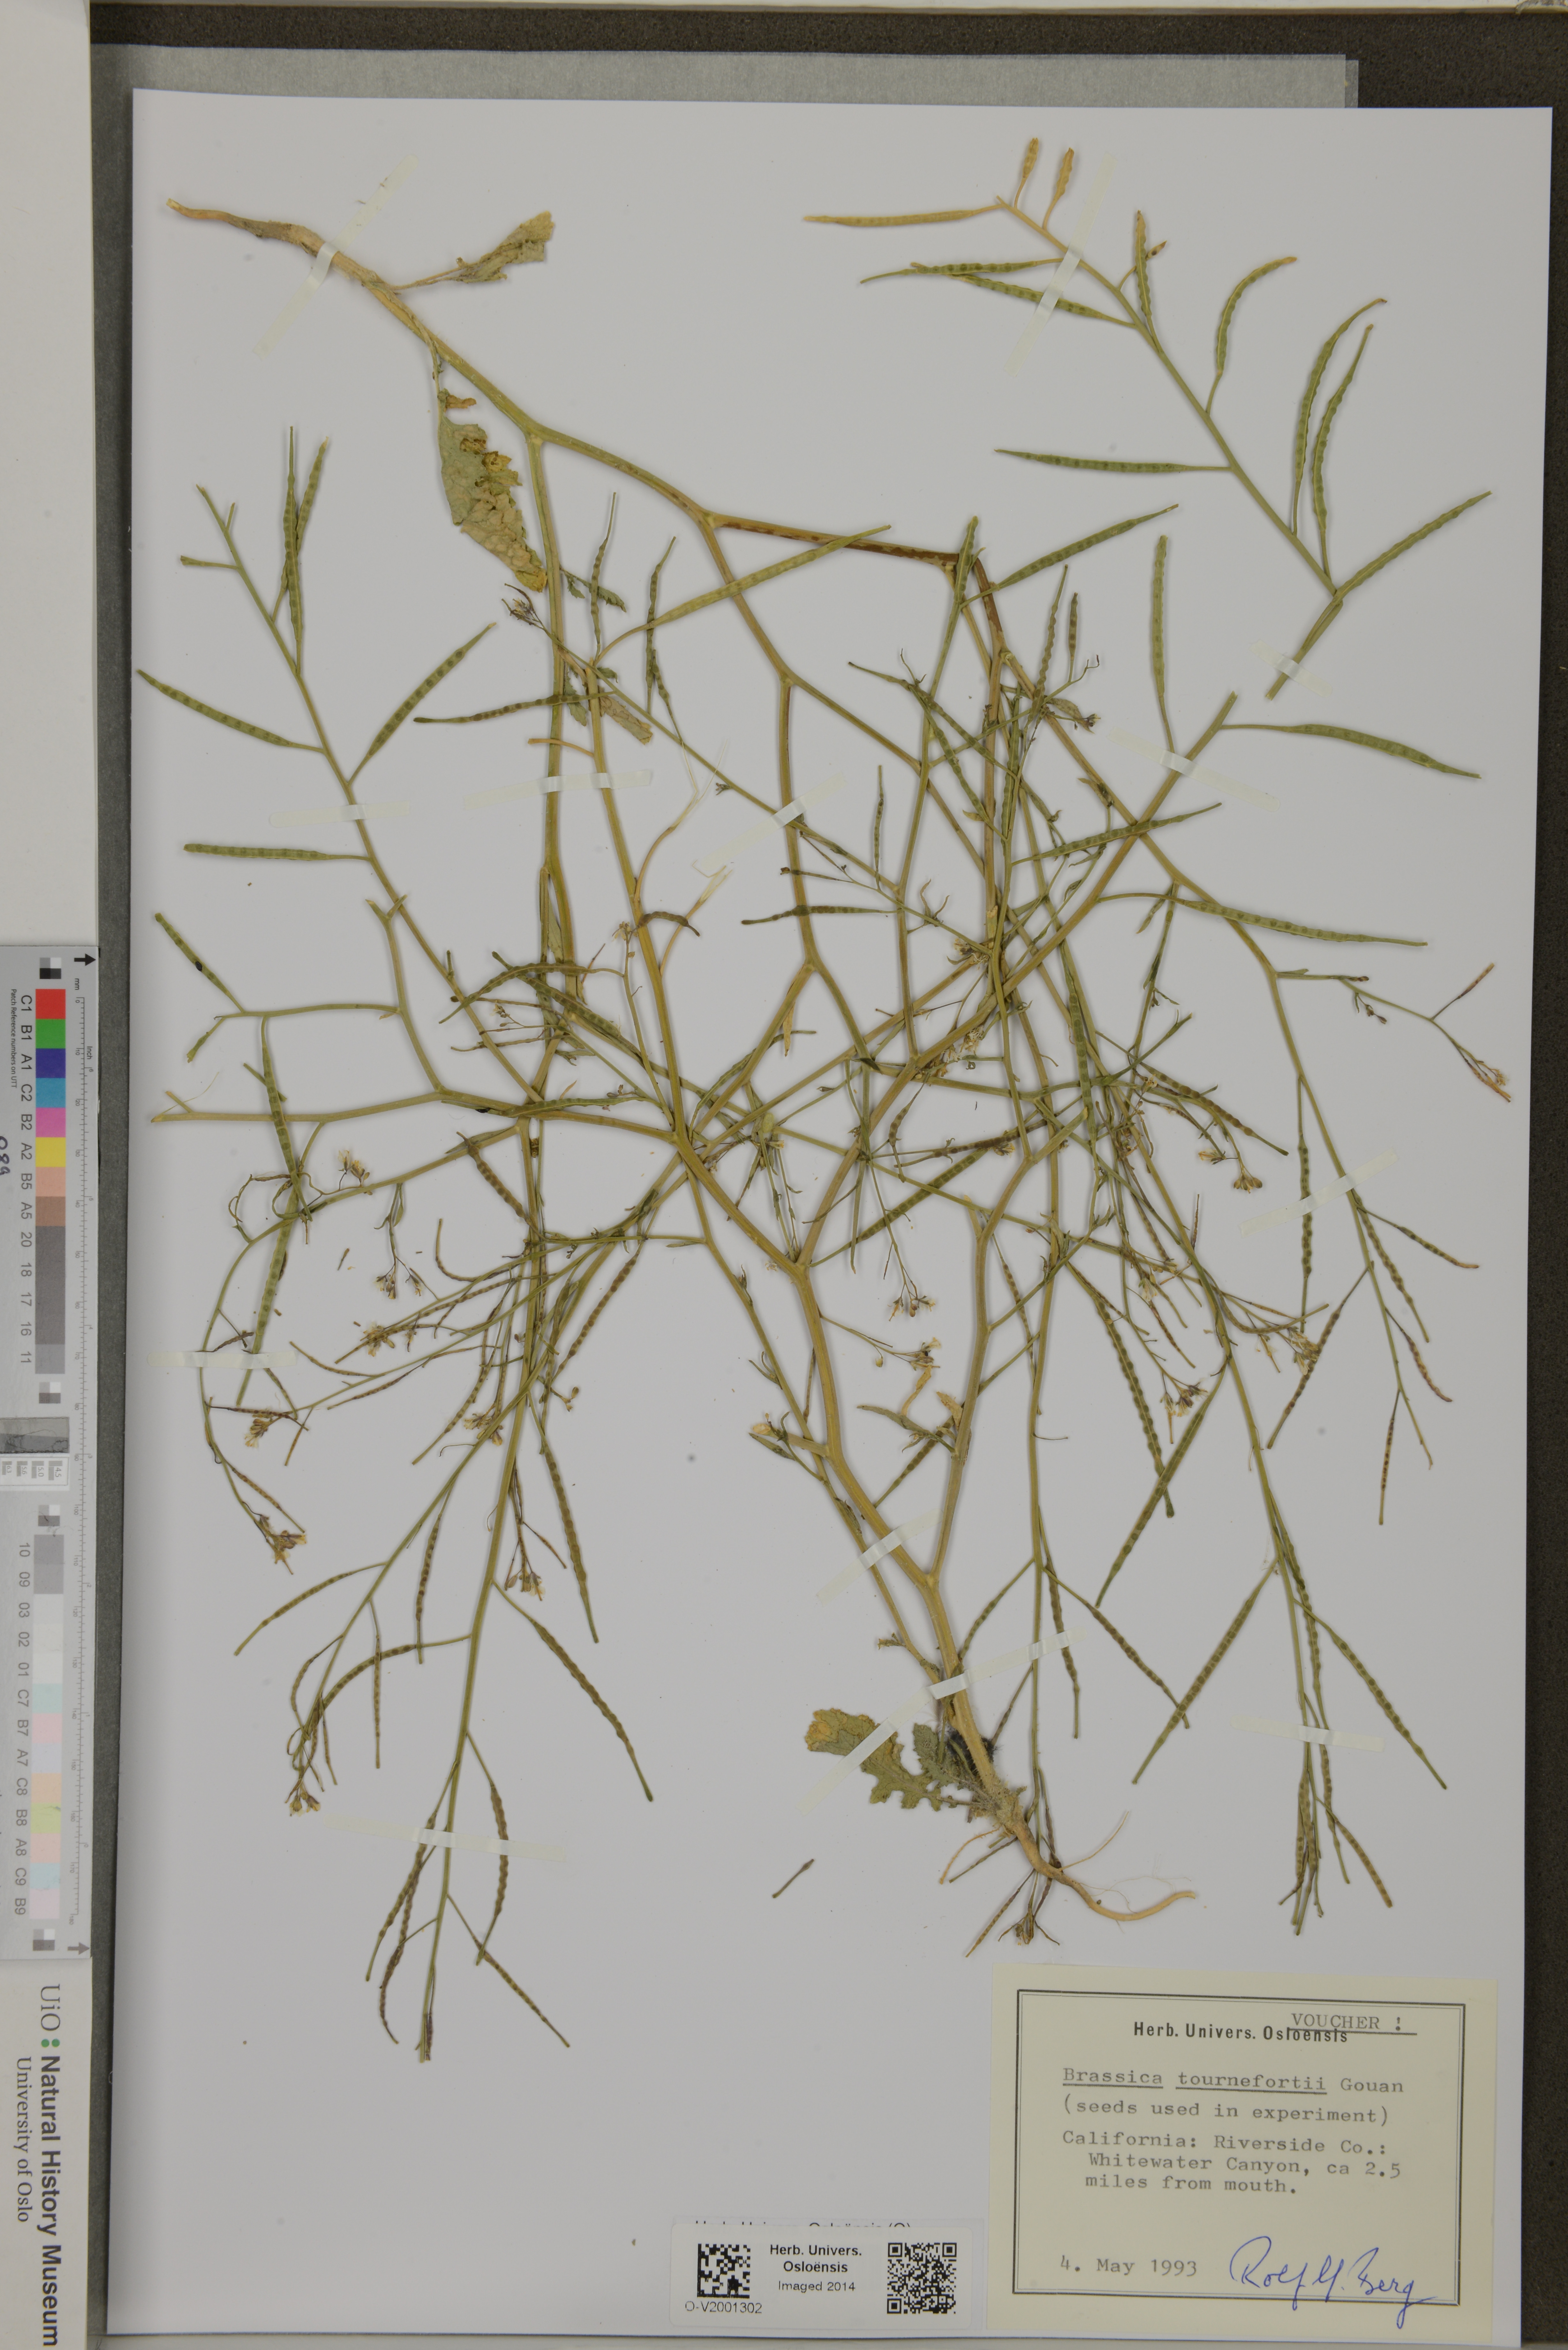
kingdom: Plantae
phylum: Tracheophyta
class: Magnoliopsida
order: Brassicales
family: Brassicaceae
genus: Brassica
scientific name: Brassica tournefortii
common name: Pale cabbage
